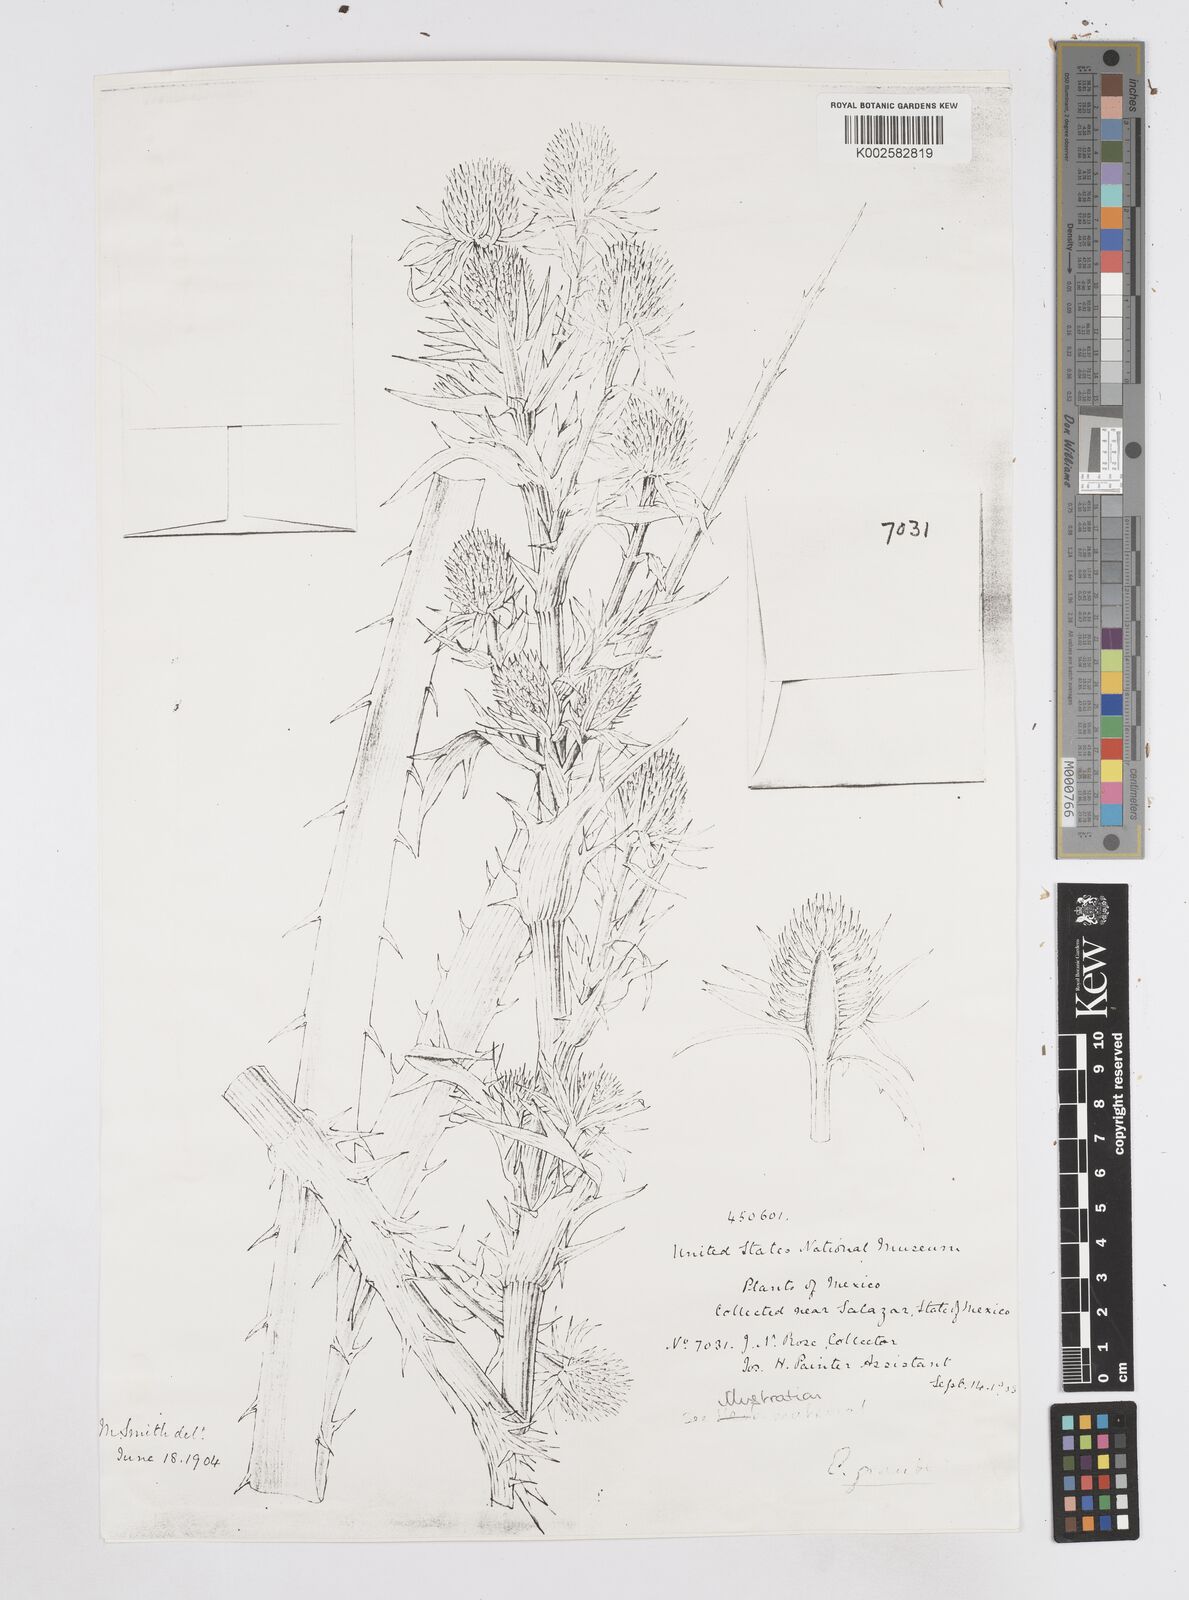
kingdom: Plantae
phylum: Tracheophyta
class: Magnoliopsida
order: Apiales
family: Apiaceae
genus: Eryngium
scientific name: Eryngium monocephalum
